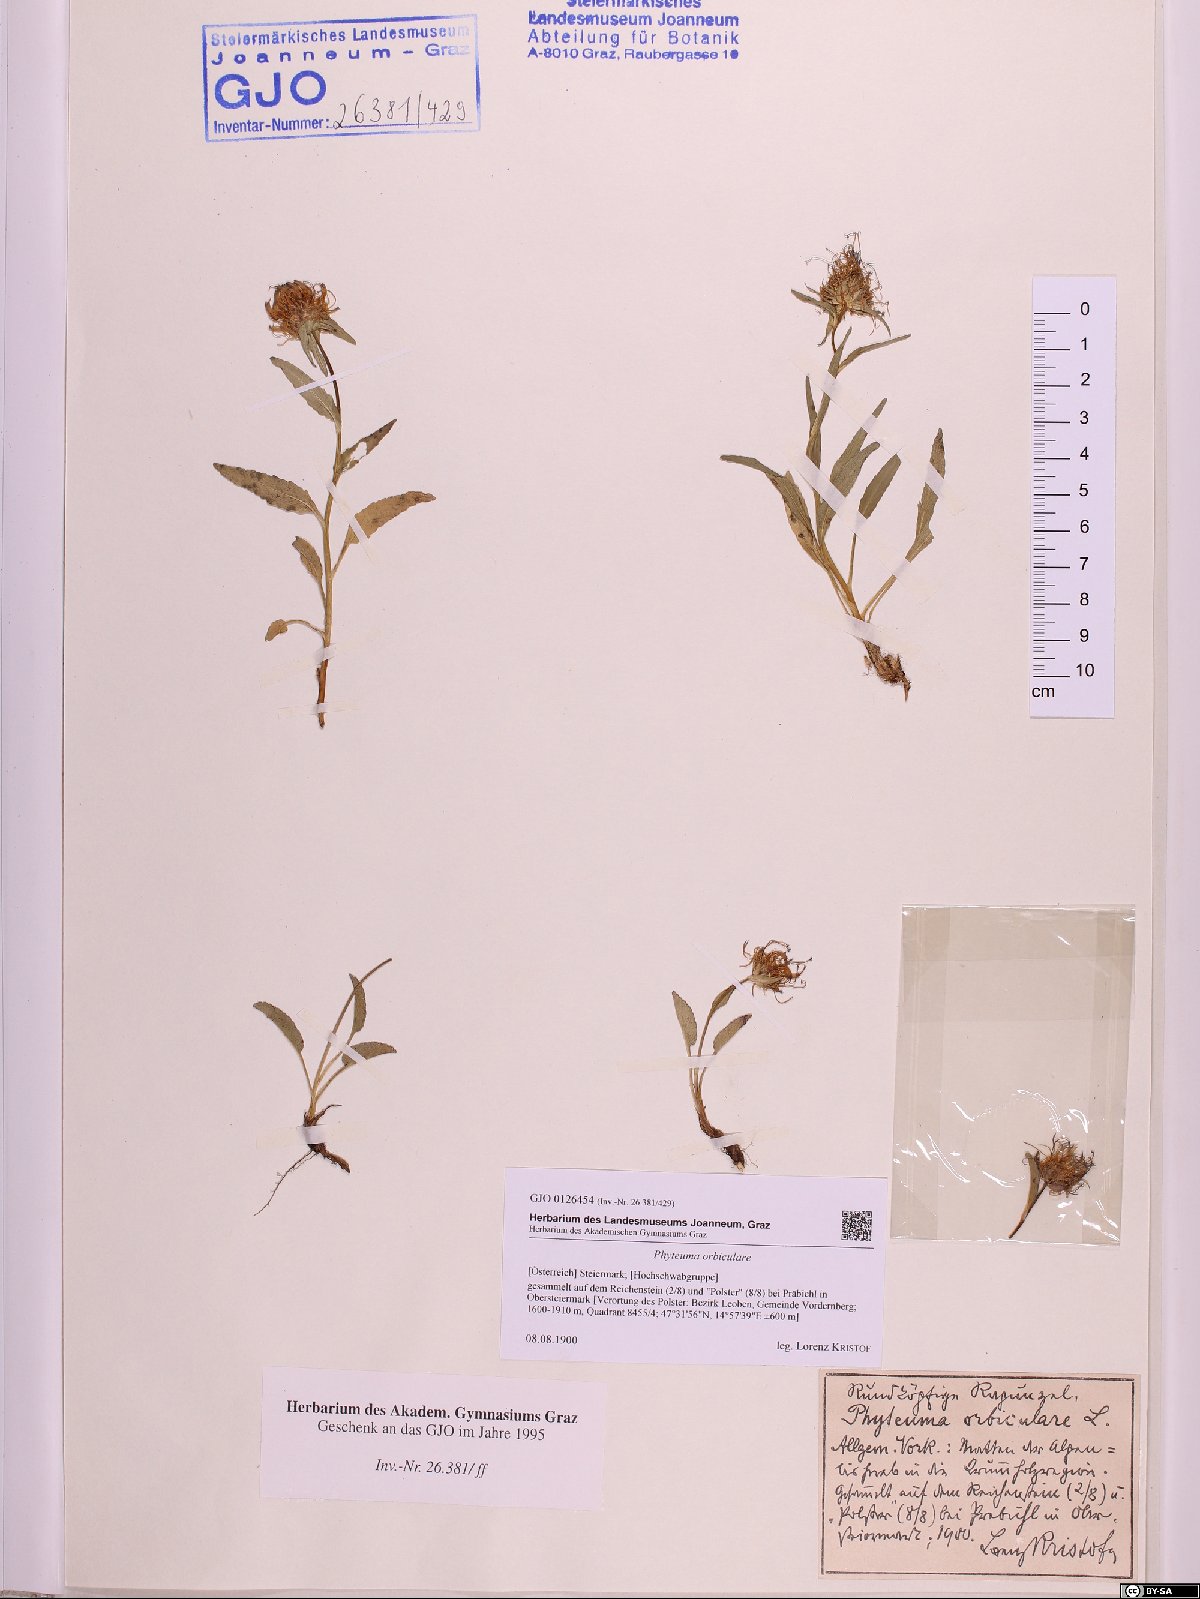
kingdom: Plantae
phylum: Tracheophyta
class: Magnoliopsida
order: Asterales
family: Campanulaceae
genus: Phyteuma
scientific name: Phyteuma orbiculare
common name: Round-headed rampion
